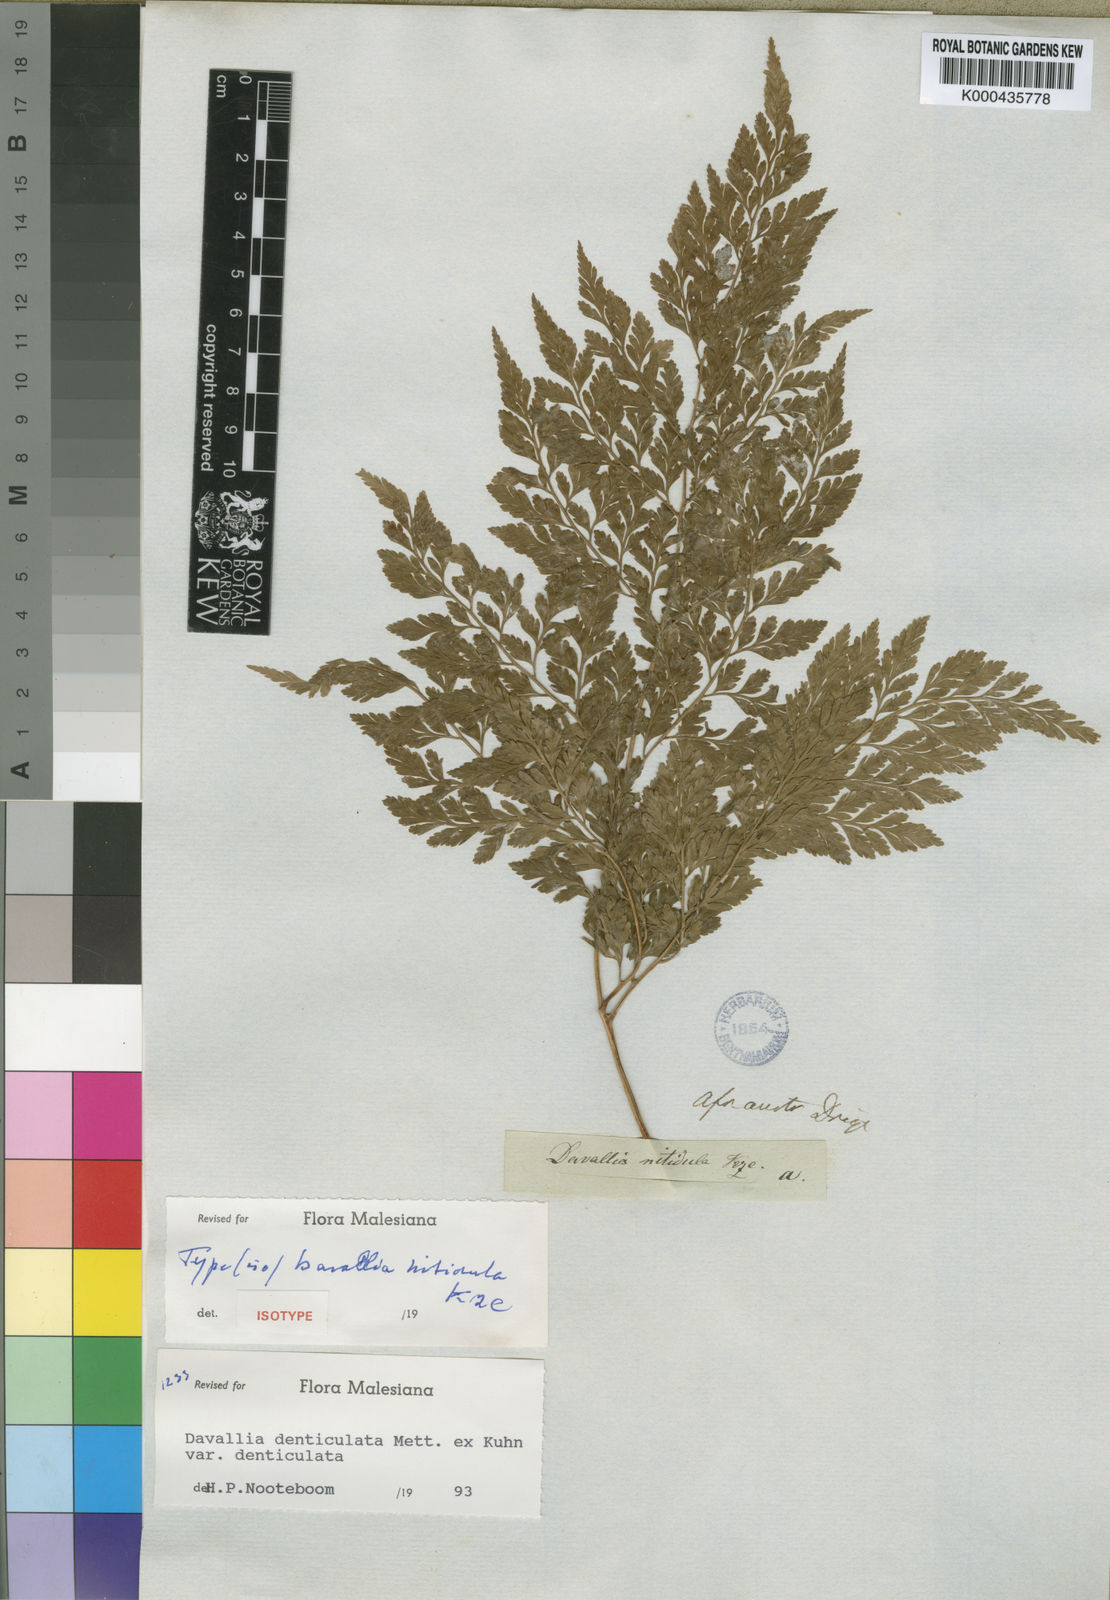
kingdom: Plantae
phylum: Tracheophyta
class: Polypodiopsida
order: Polypodiales
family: Davalliaceae
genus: Davallia
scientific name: Davallia chaerophylloides
